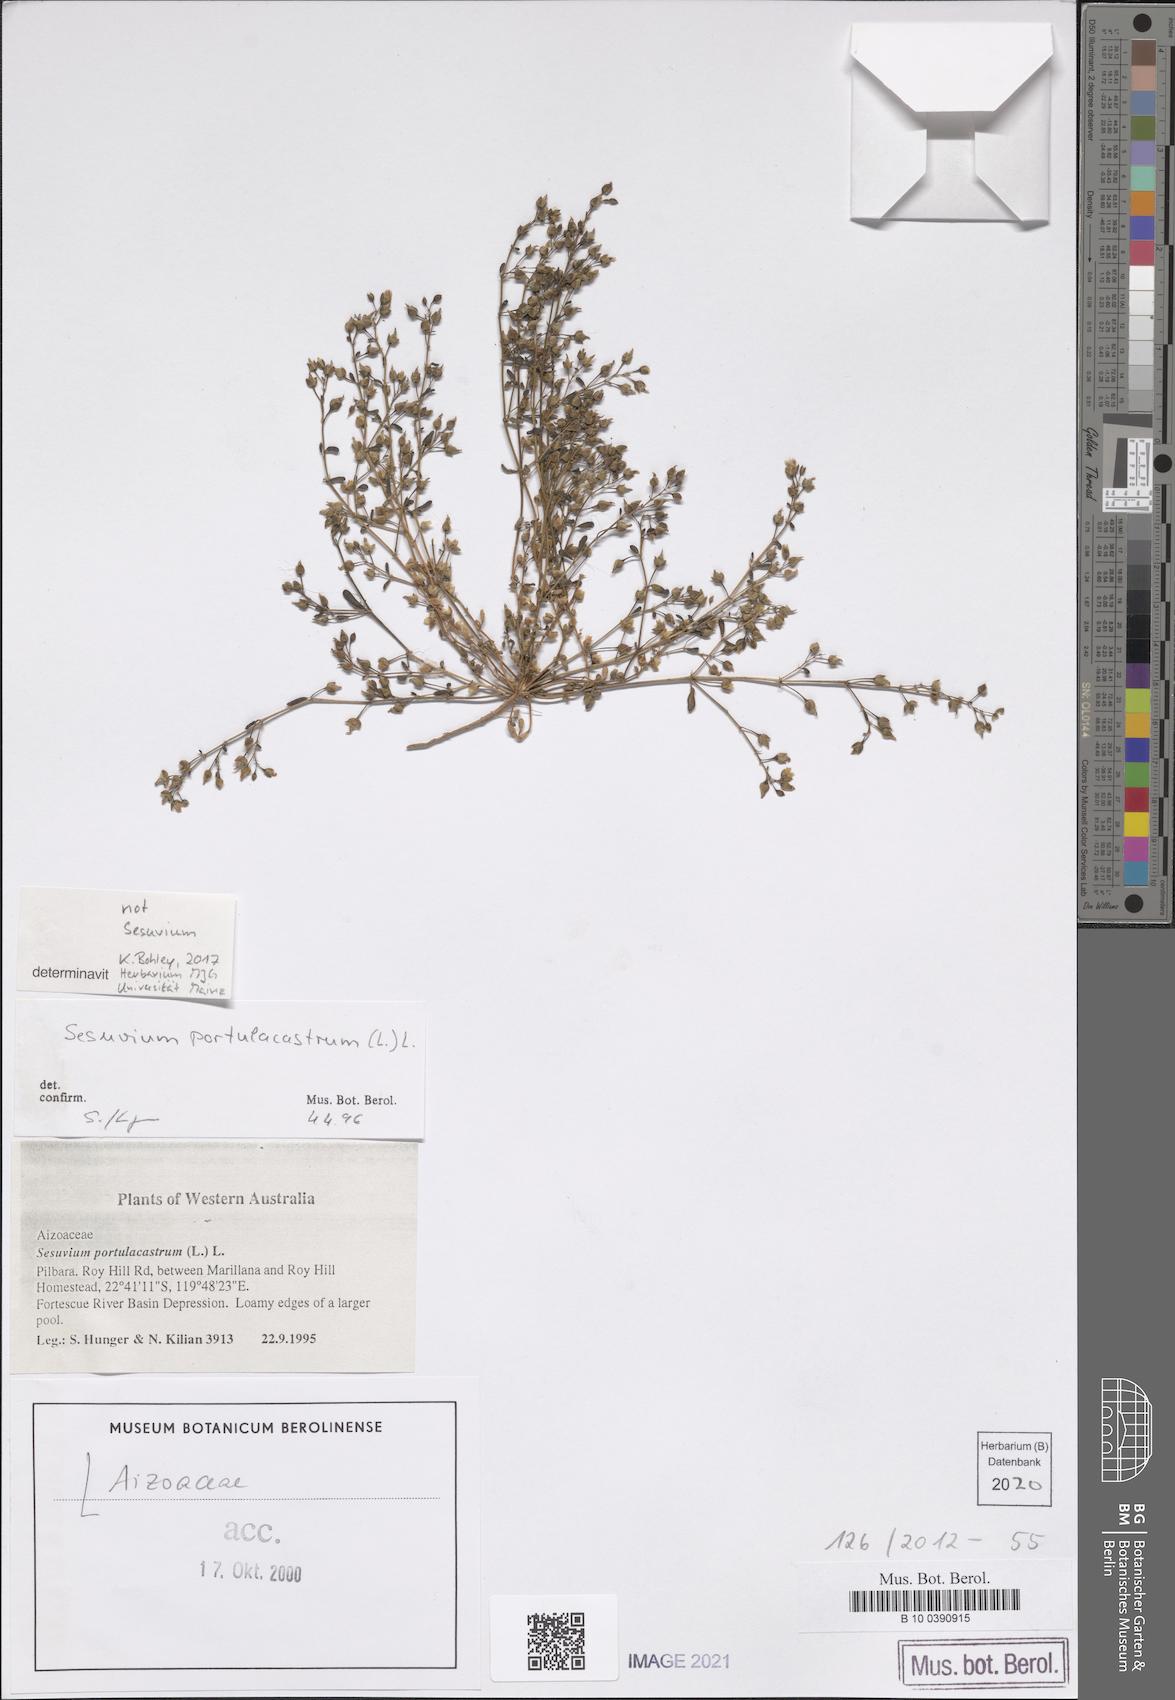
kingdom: Plantae
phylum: Tracheophyta
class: Magnoliopsida
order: Caryophyllales
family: Aizoaceae
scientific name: Aizoaceae
